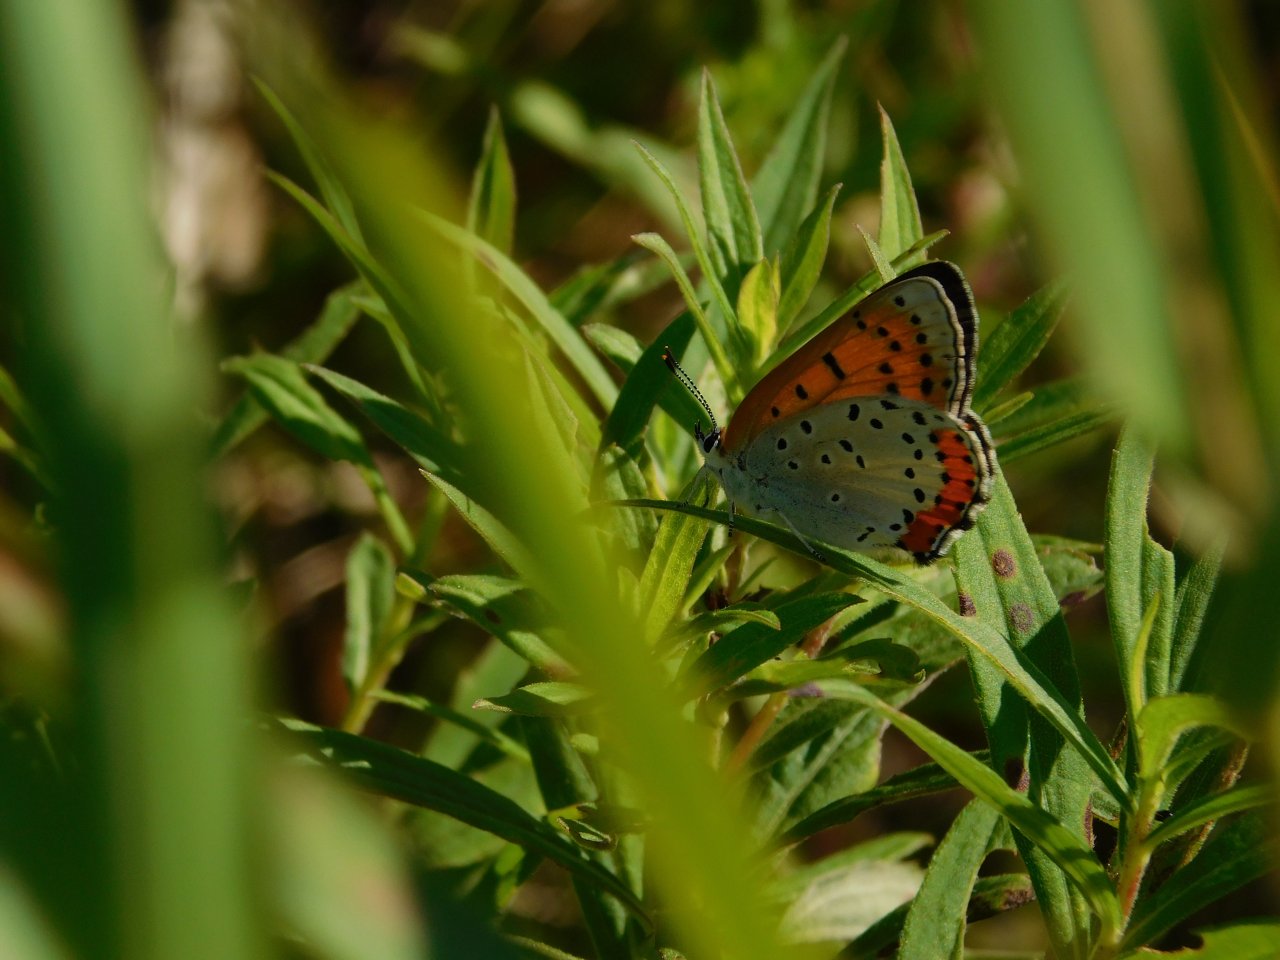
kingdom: Animalia
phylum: Arthropoda
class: Insecta
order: Lepidoptera
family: Sesiidae
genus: Sesia
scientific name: Sesia Lycaena hyllus
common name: Bronze Copper
